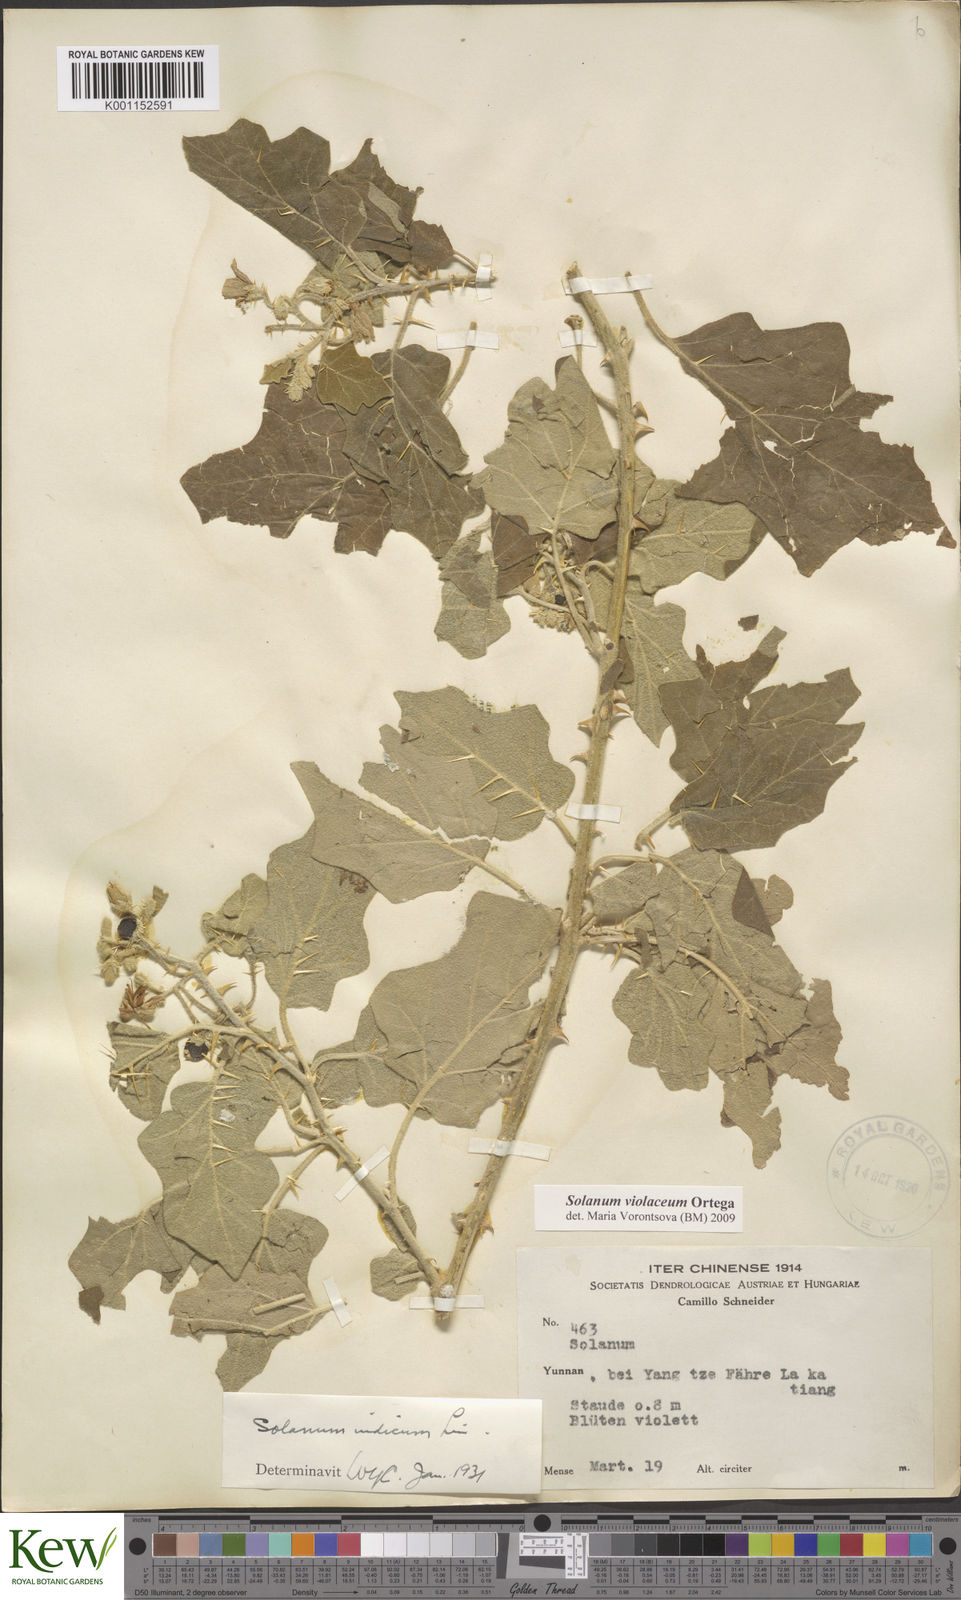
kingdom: Plantae
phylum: Tracheophyta
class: Magnoliopsida
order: Solanales
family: Solanaceae
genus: Solanum
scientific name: Solanum violaceum
